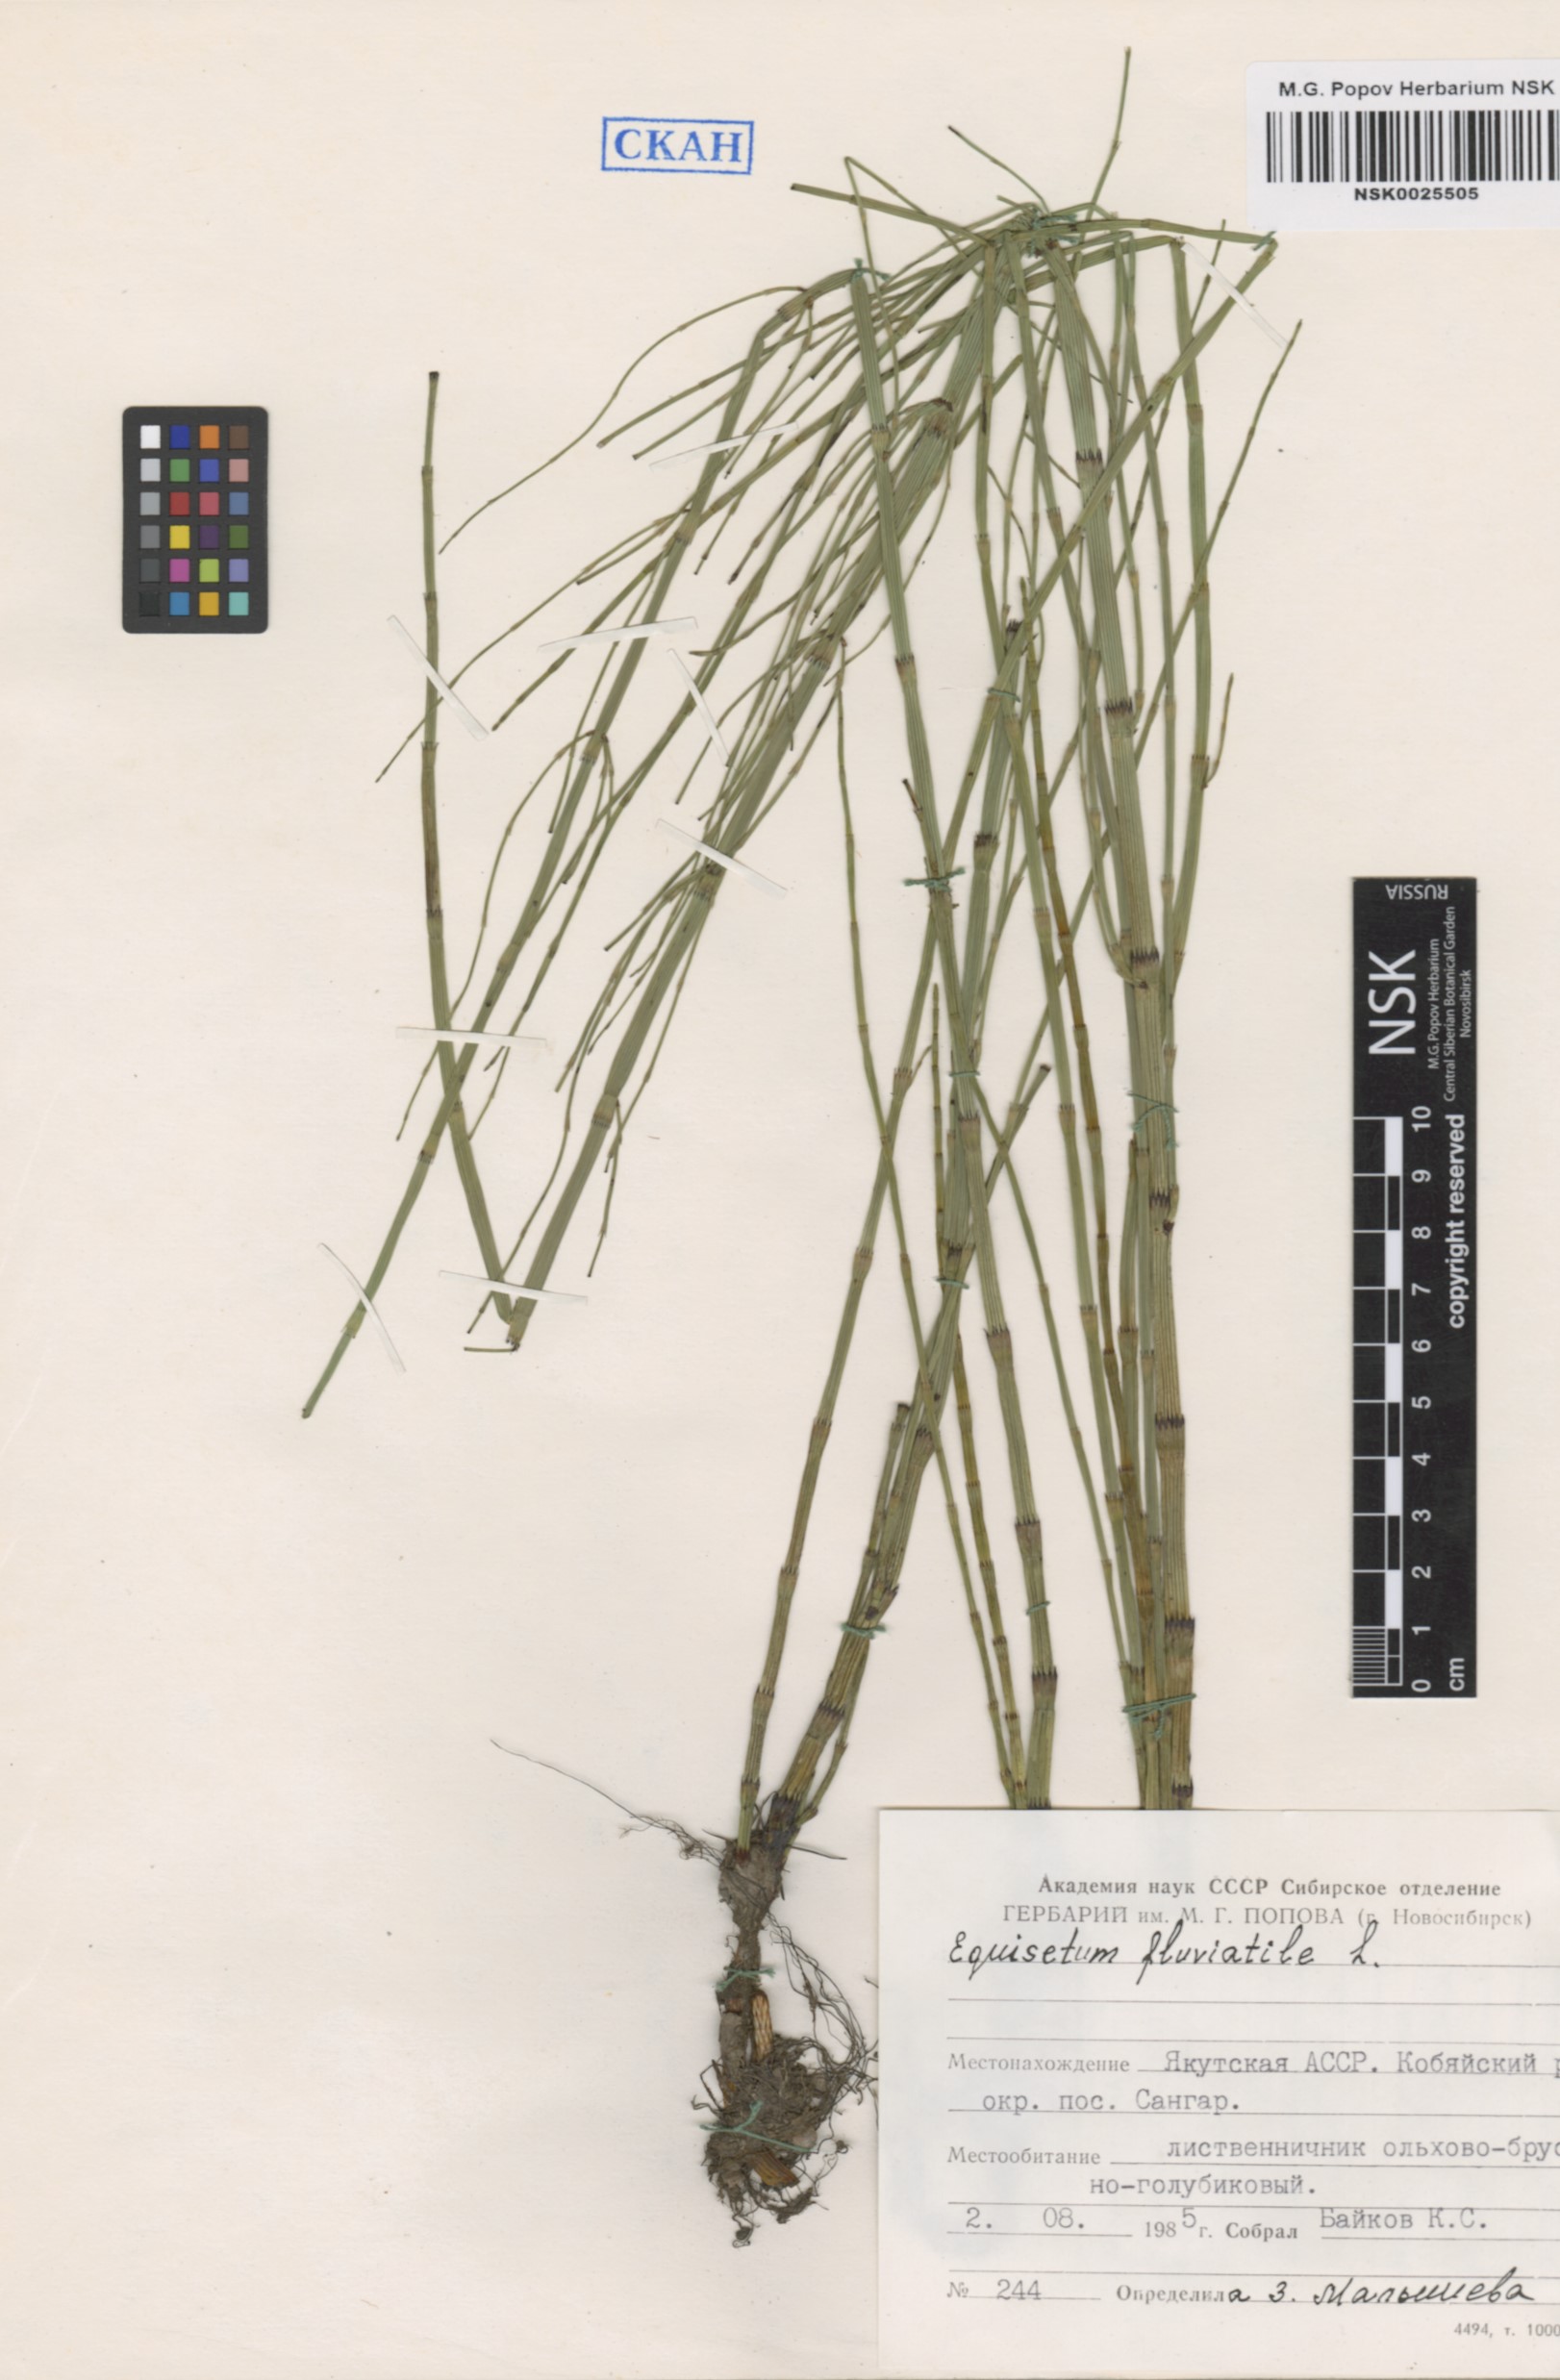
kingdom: Plantae
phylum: Tracheophyta
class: Polypodiopsida
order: Equisetales
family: Equisetaceae
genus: Equisetum
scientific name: Equisetum fluviatile
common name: Water horsetail
